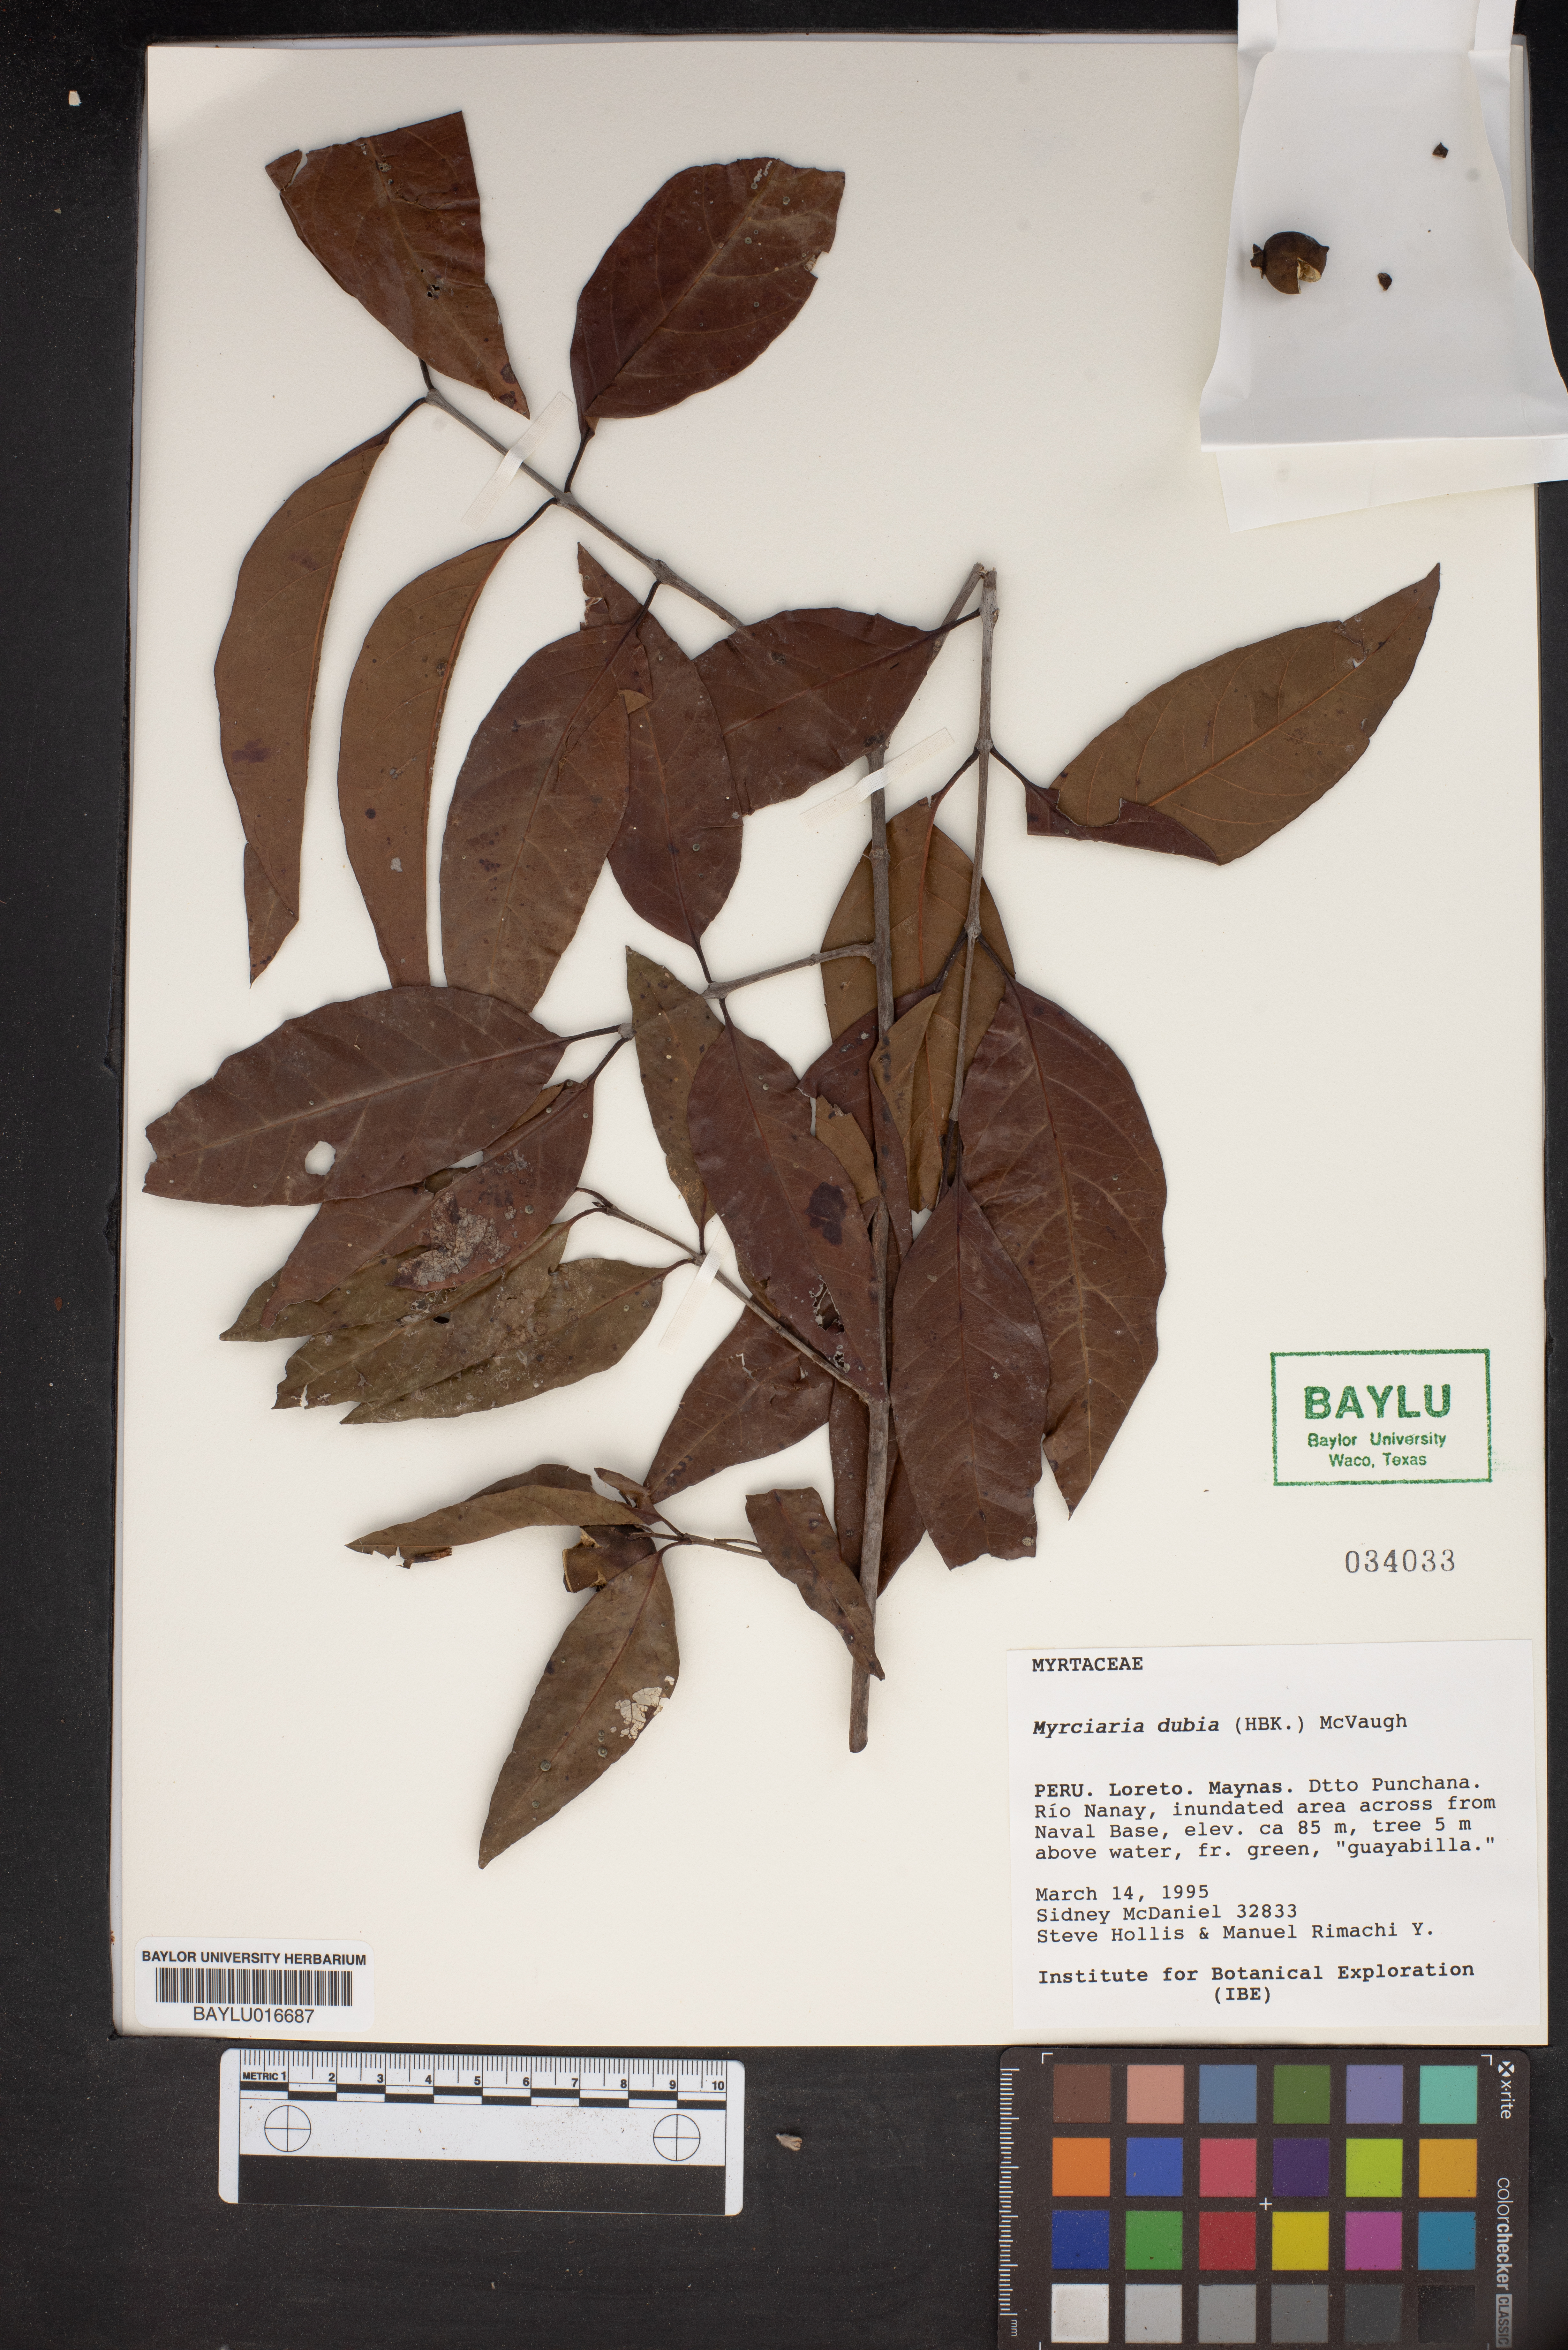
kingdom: Plantae
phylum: Tracheophyta
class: Magnoliopsida
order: Myrtales
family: Myrtaceae
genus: Myrciaria
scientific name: Myrciaria dubia
